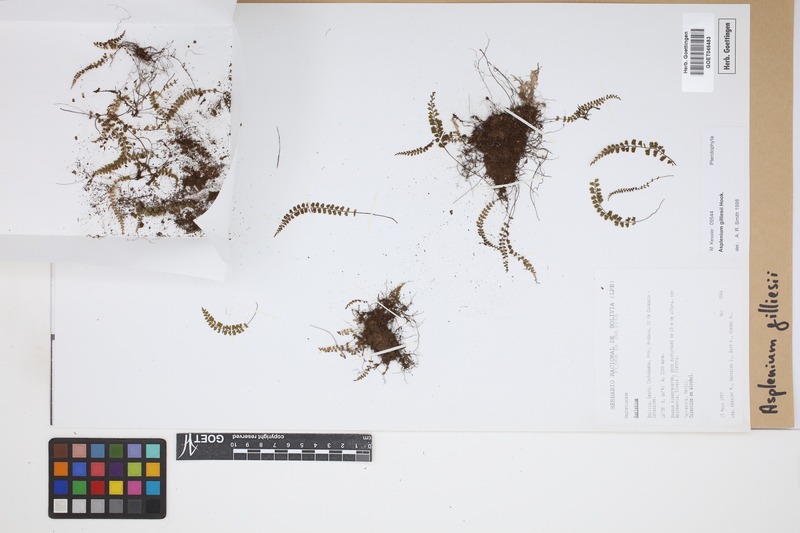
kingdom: Plantae
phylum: Tracheophyta
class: Polypodiopsida
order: Polypodiales
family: Aspleniaceae
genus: Asplenium
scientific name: Asplenium gilliesii
